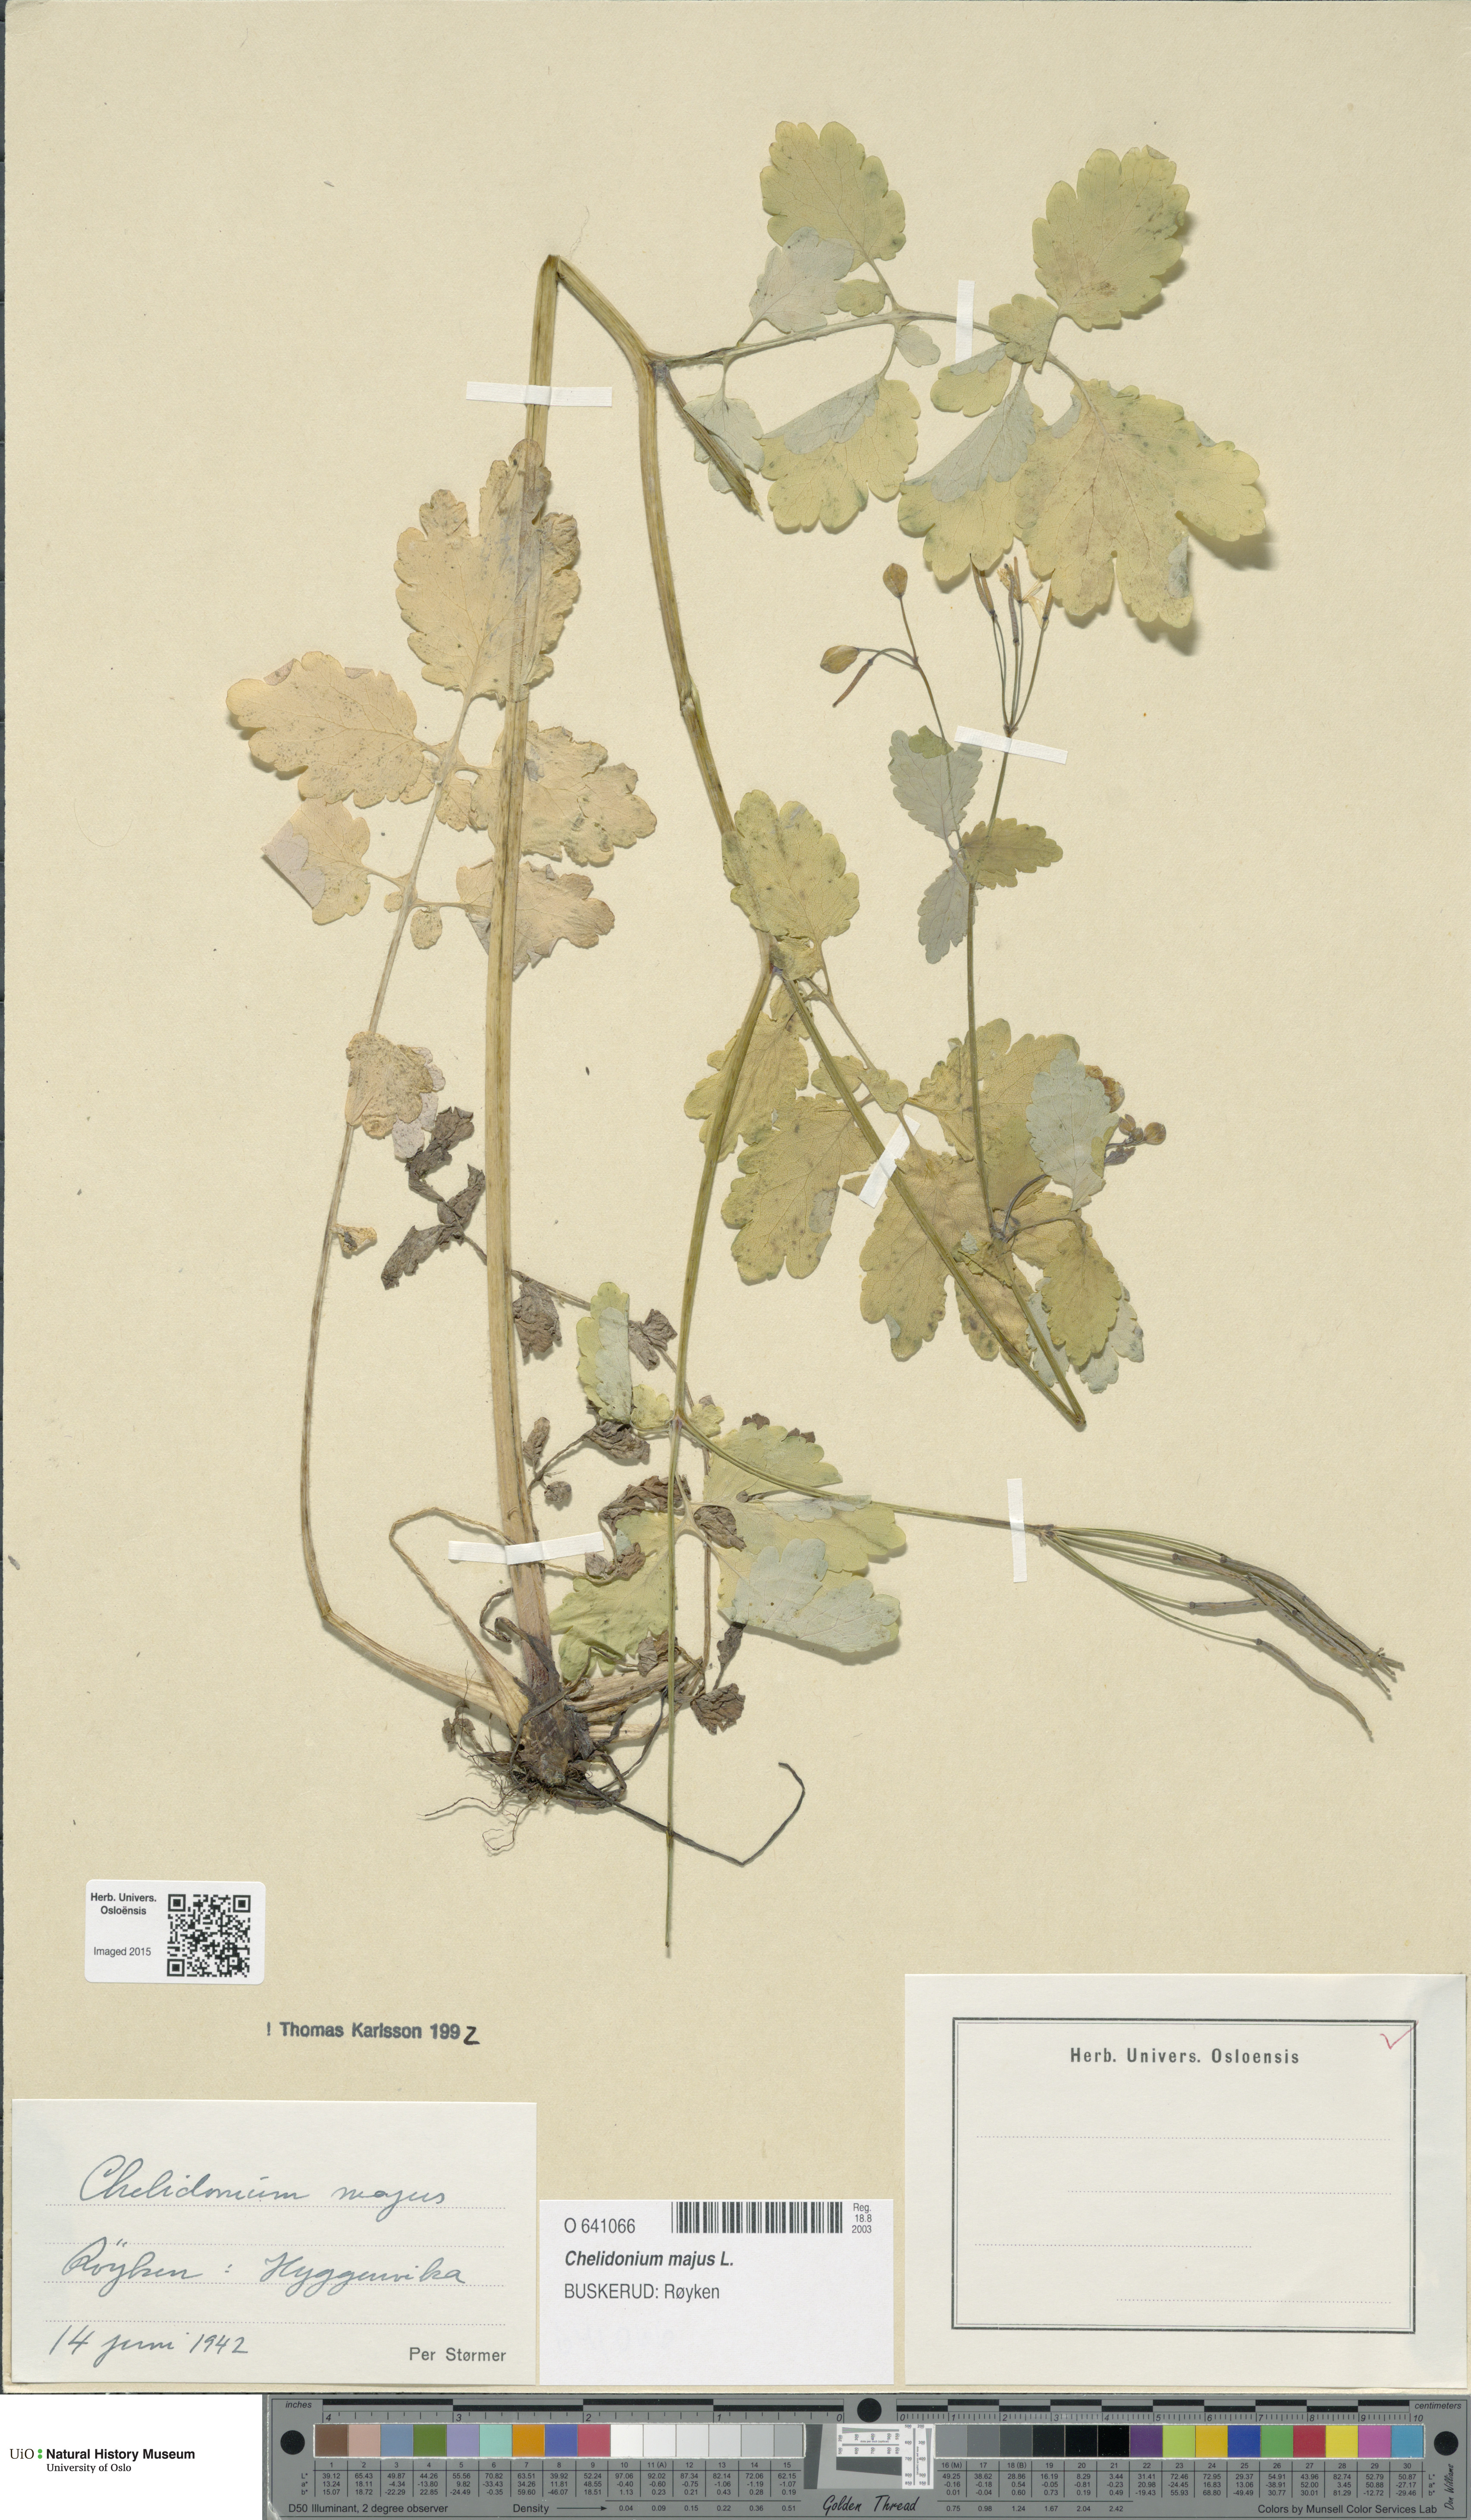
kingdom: Plantae
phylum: Tracheophyta
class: Magnoliopsida
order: Ranunculales
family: Papaveraceae
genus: Chelidonium
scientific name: Chelidonium majus
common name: Greater celandine
